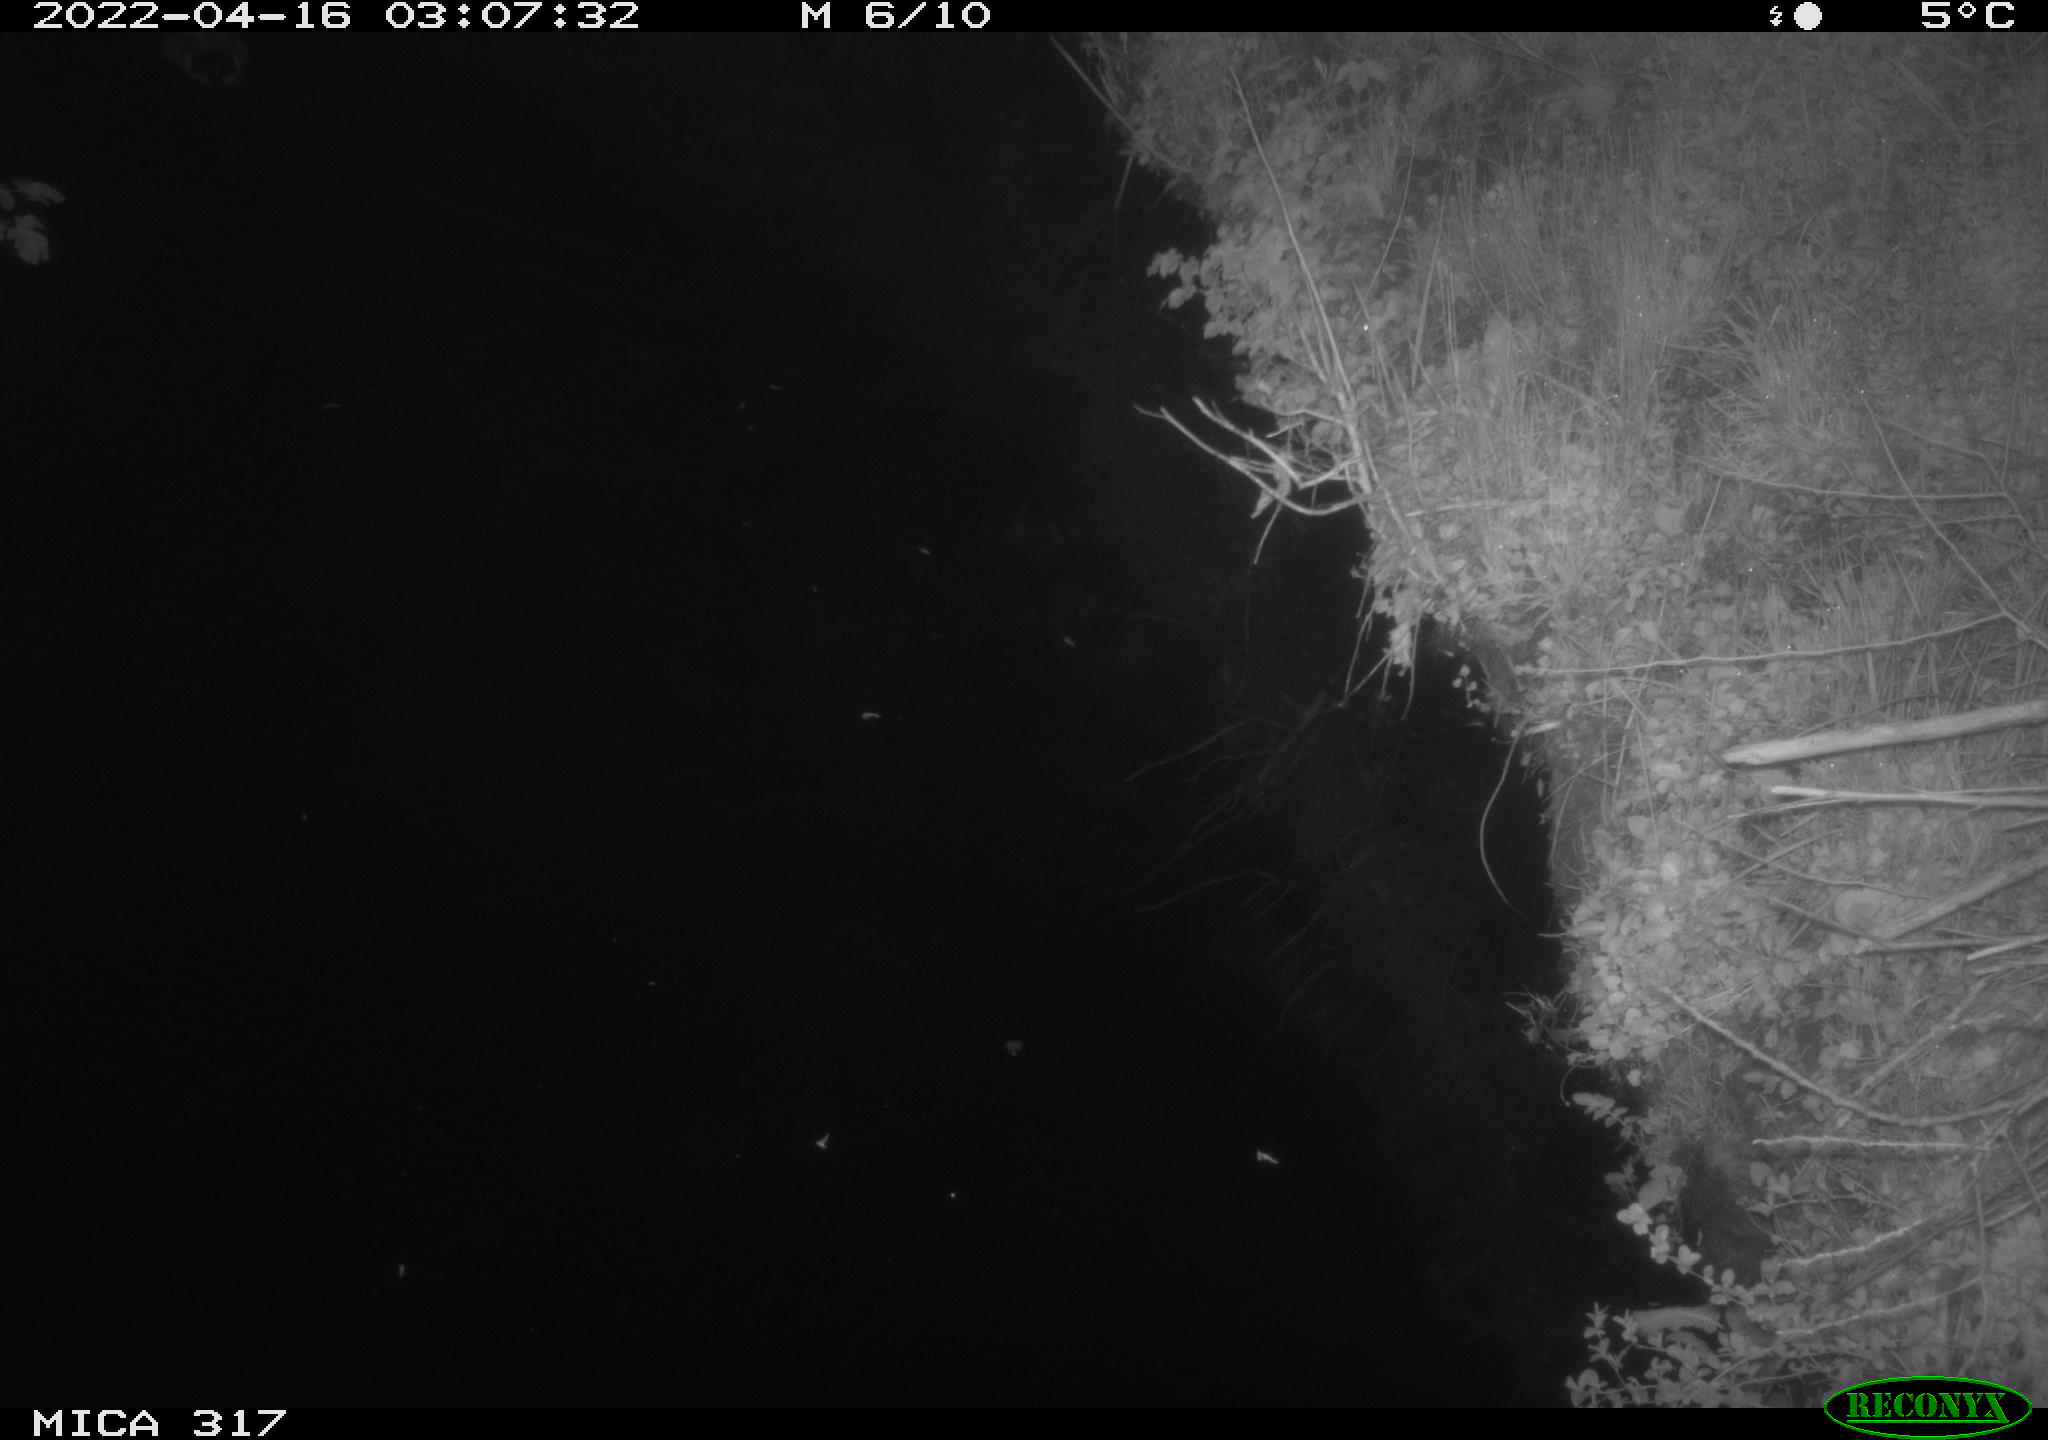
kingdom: Animalia
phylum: Chordata
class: Aves
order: Anseriformes
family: Anatidae
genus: Anas
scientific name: Anas platyrhynchos
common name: Mallard
